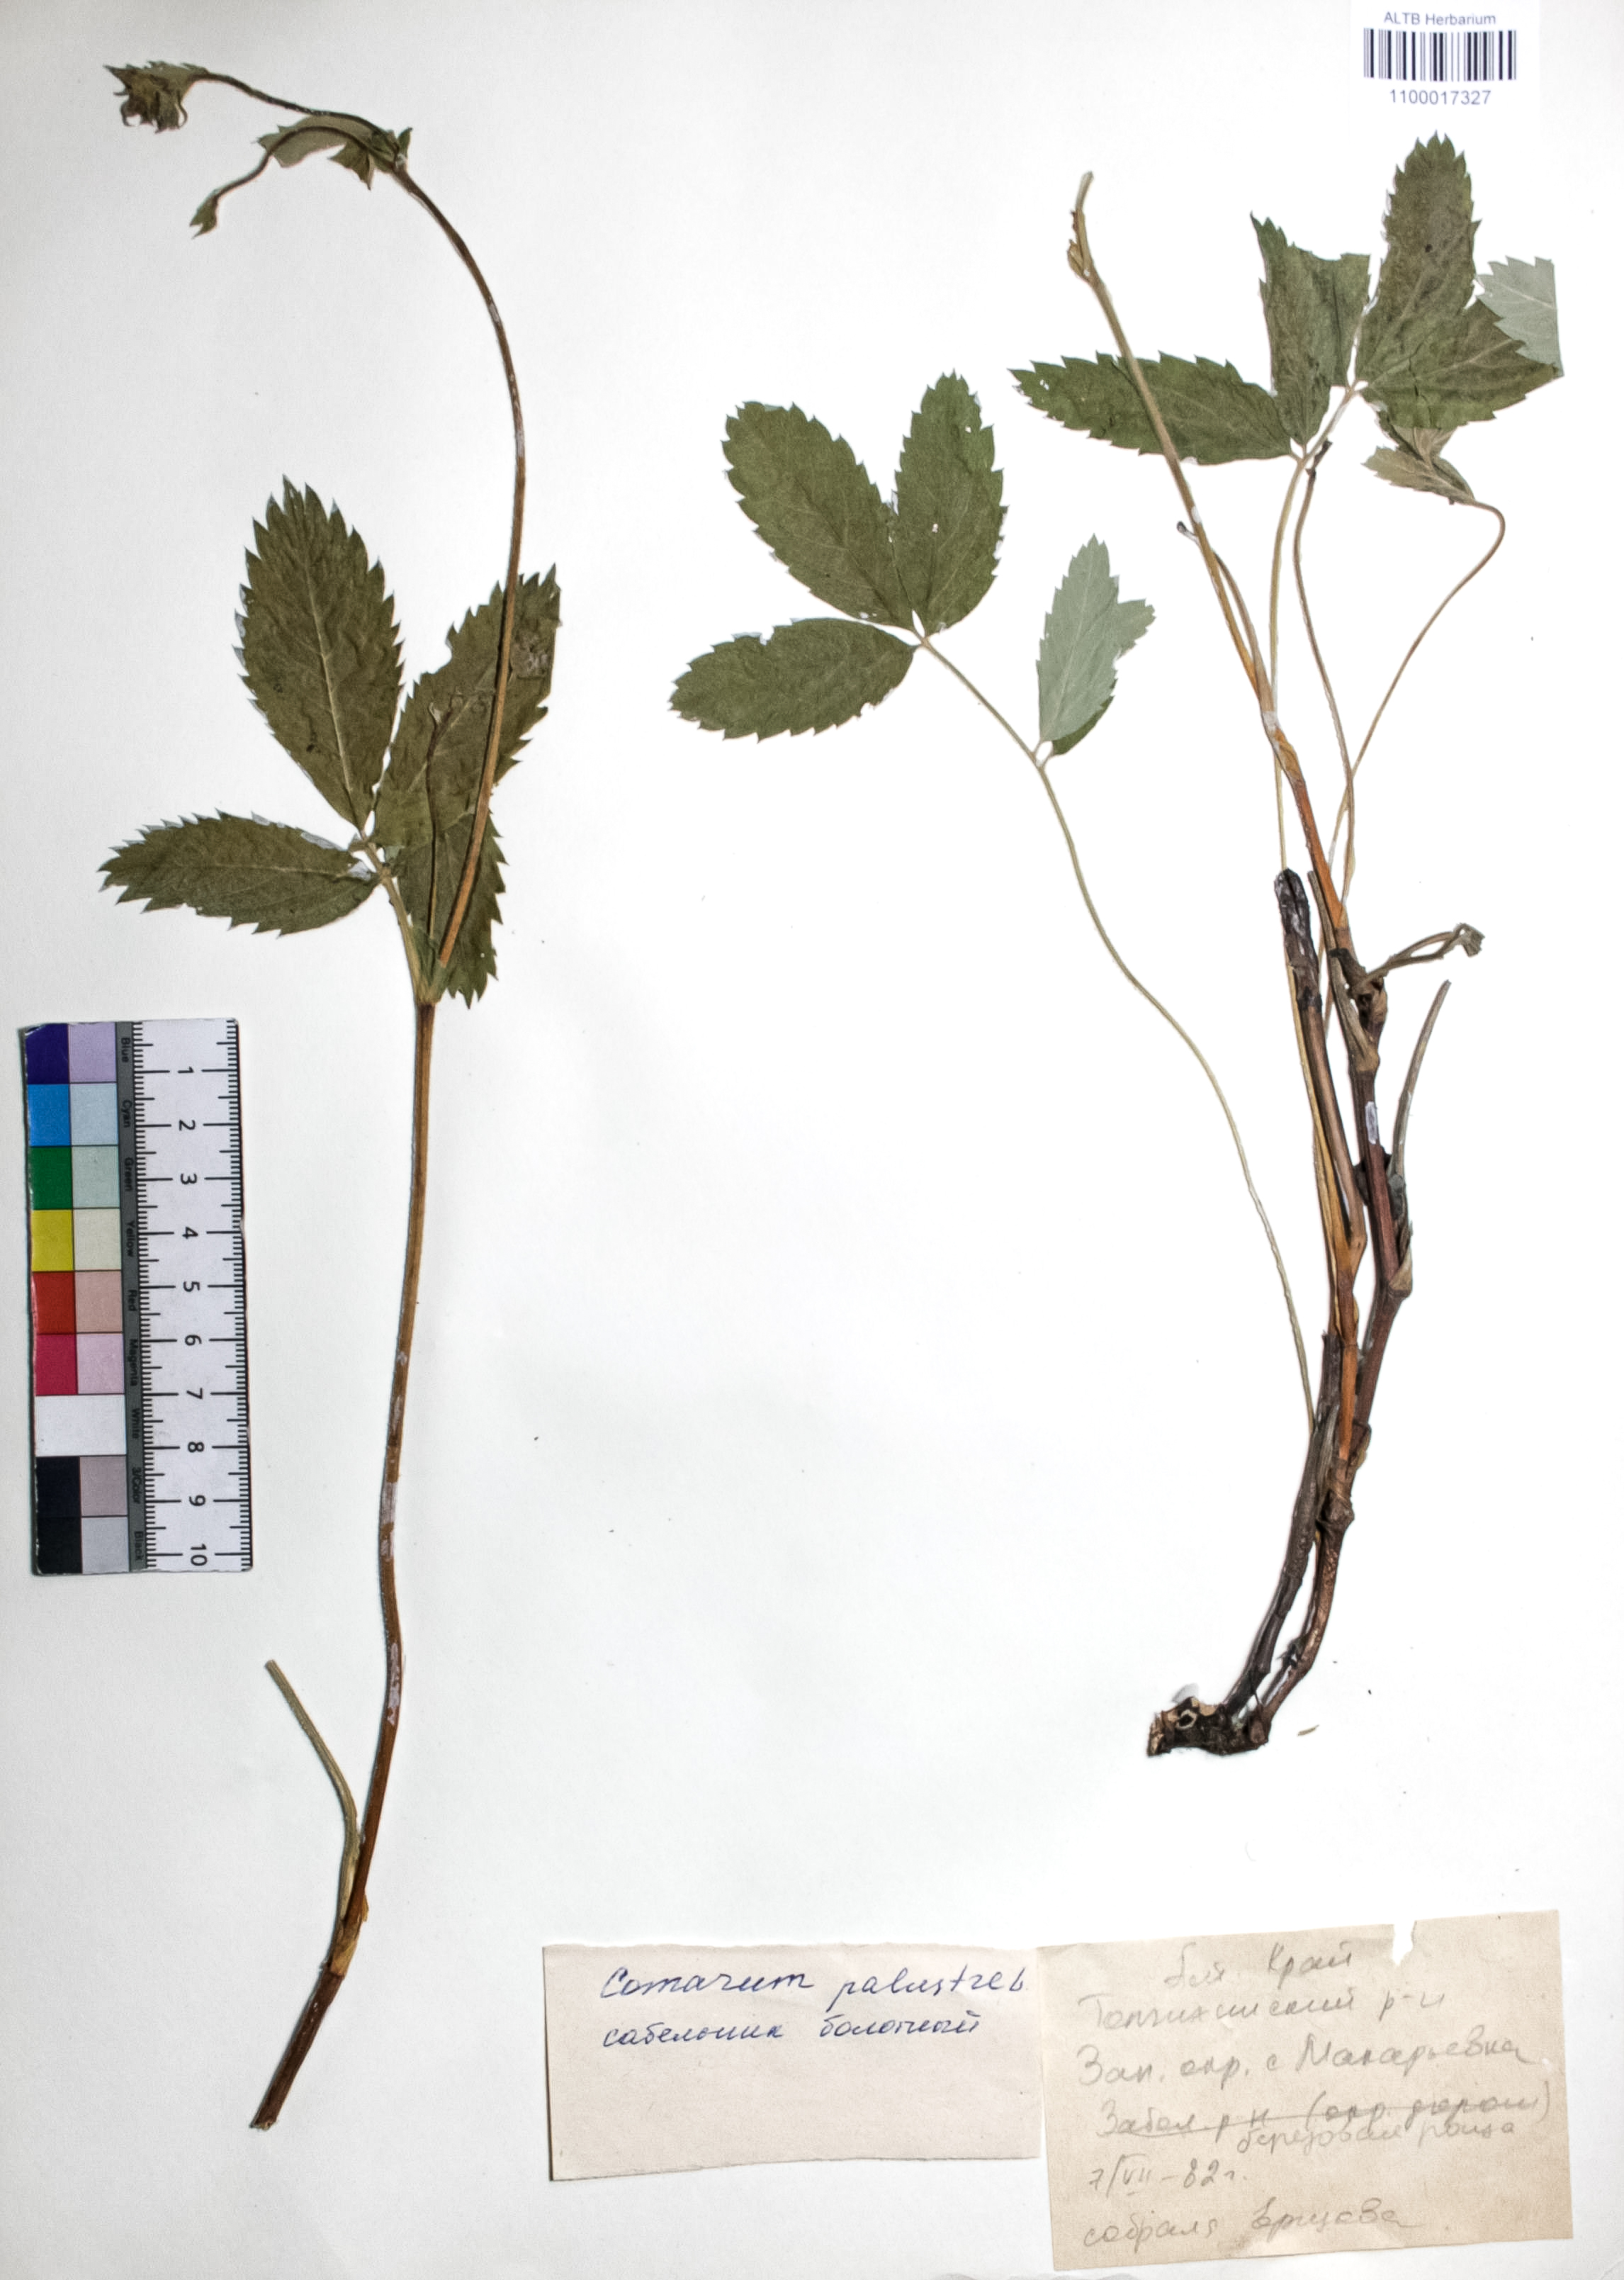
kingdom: Plantae
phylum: Tracheophyta
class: Magnoliopsida
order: Rosales
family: Rosaceae
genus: Comarum
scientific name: Comarum palustre
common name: Marsh cinquefoil
